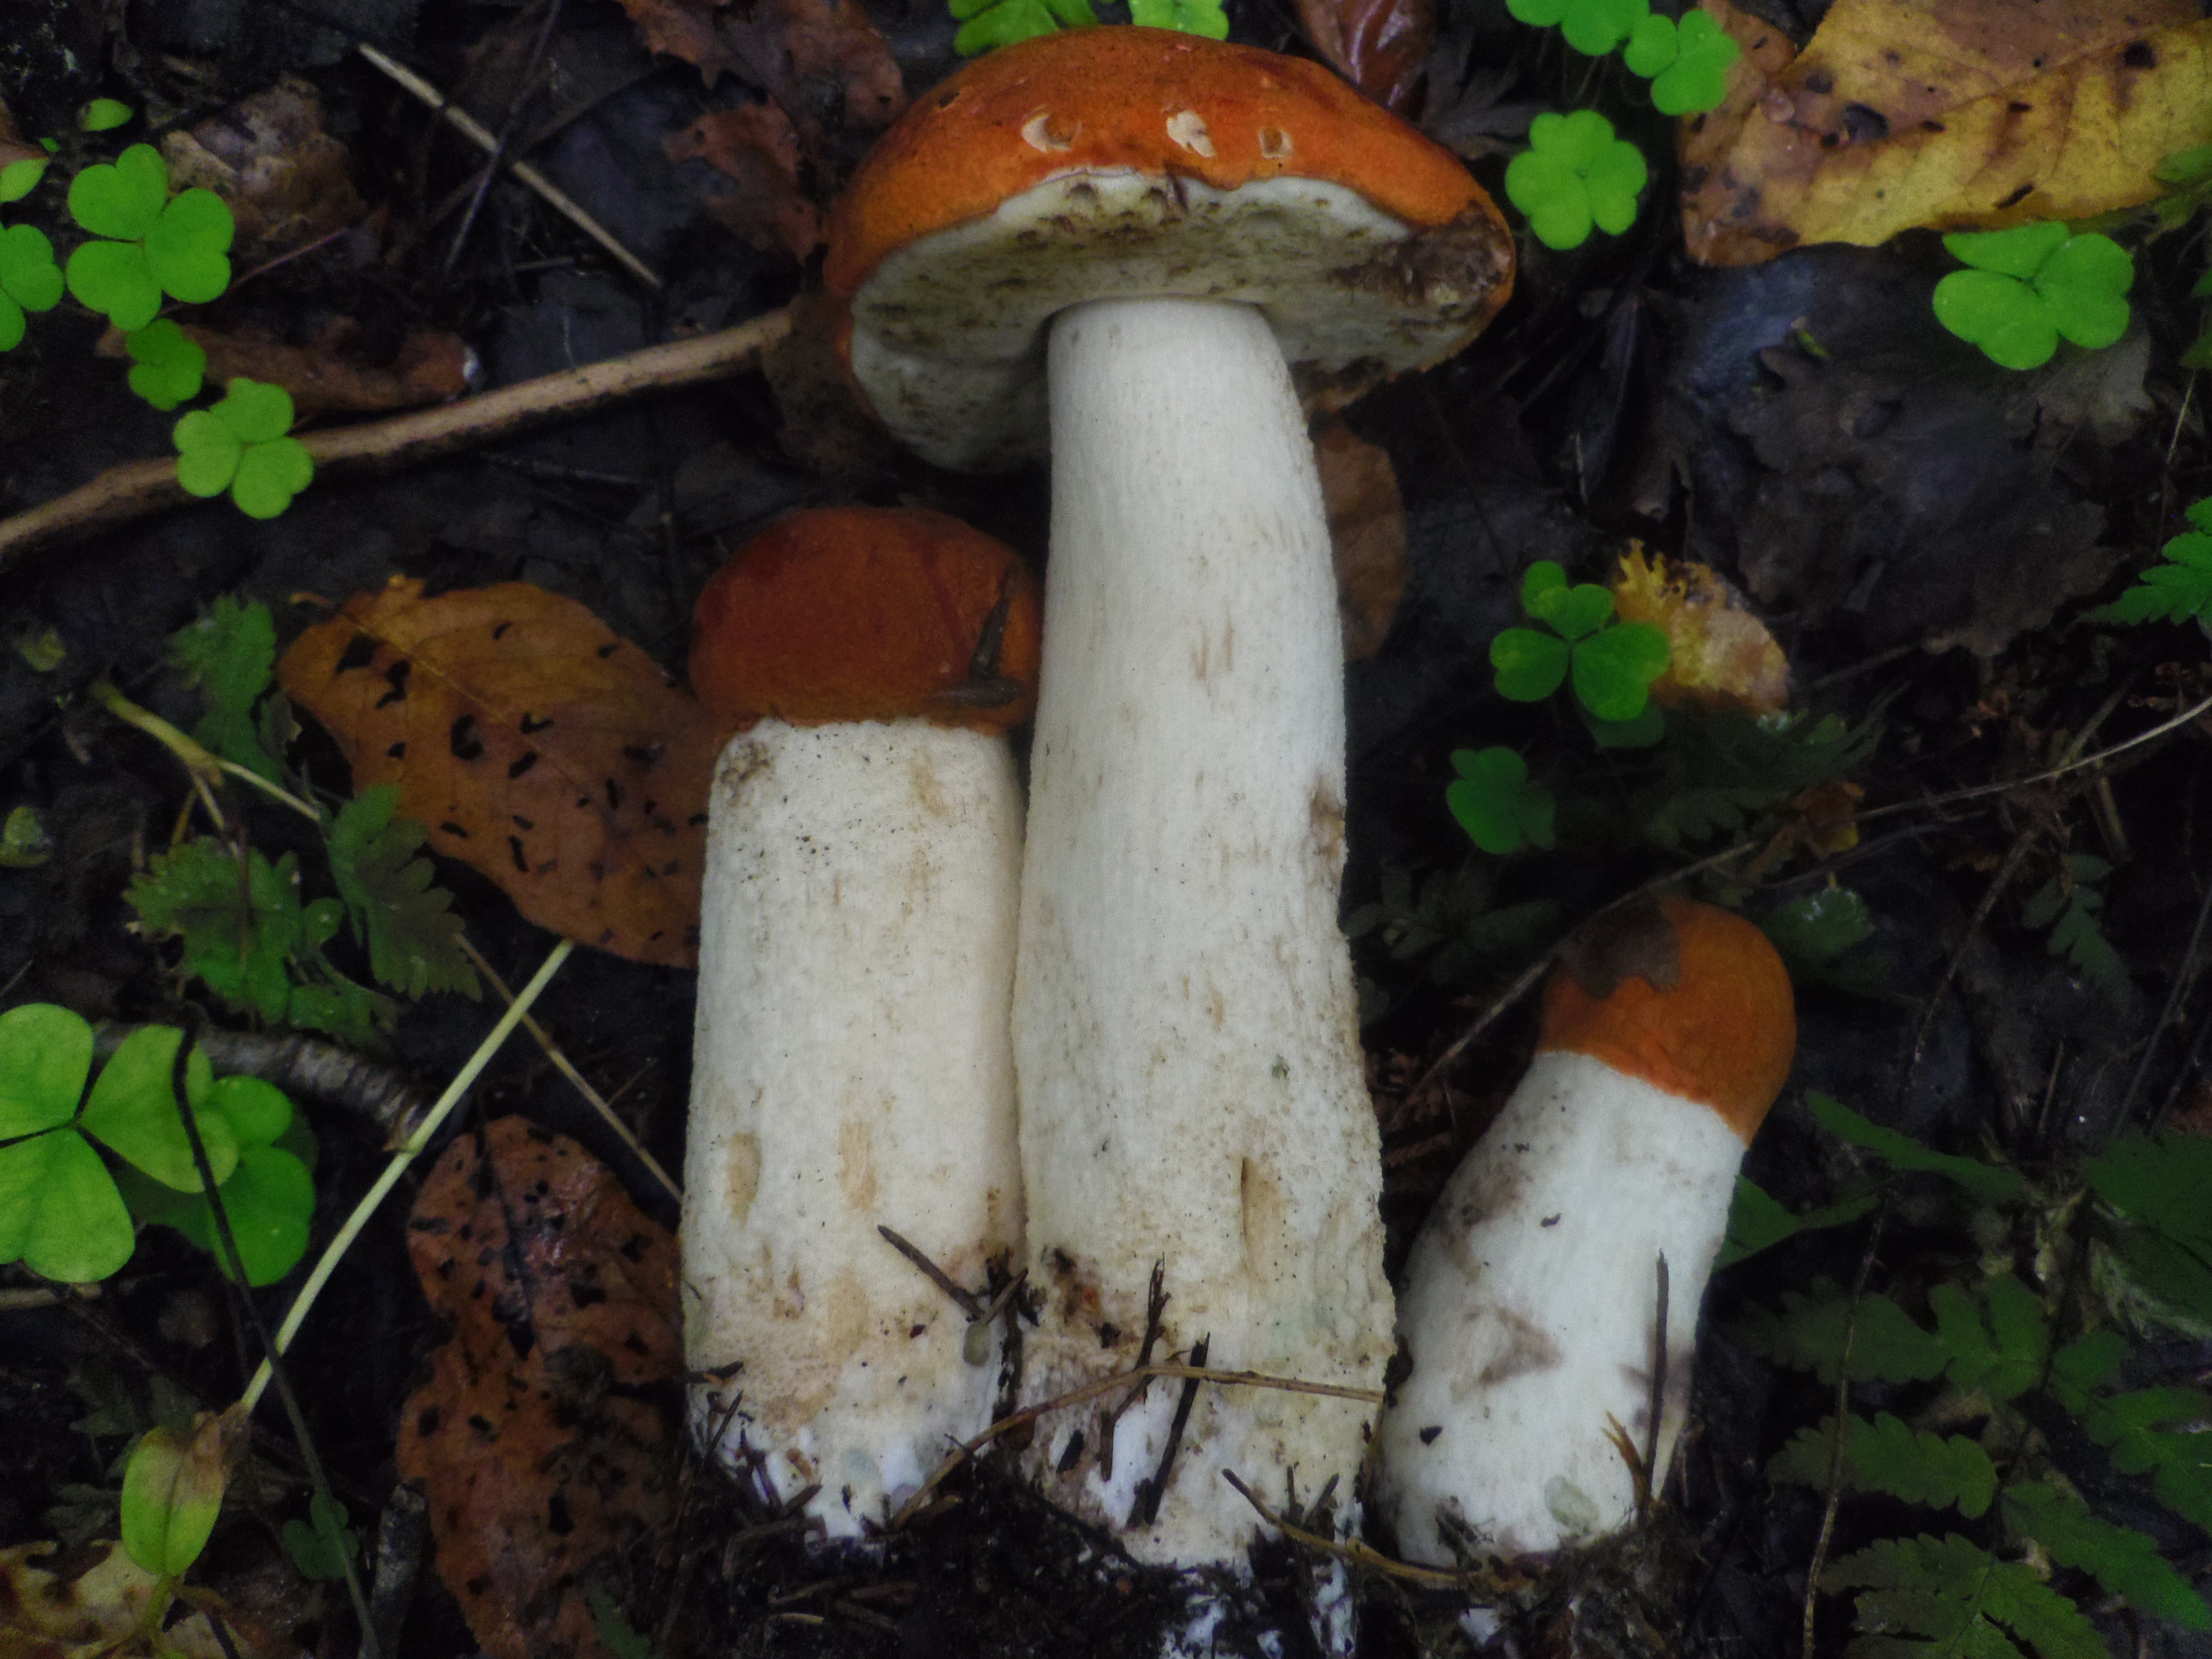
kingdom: Fungi
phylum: Basidiomycota
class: Agaricomycetes
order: Boletales
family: Boletaceae
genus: Leccinum
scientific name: Leccinum albostipitatum
